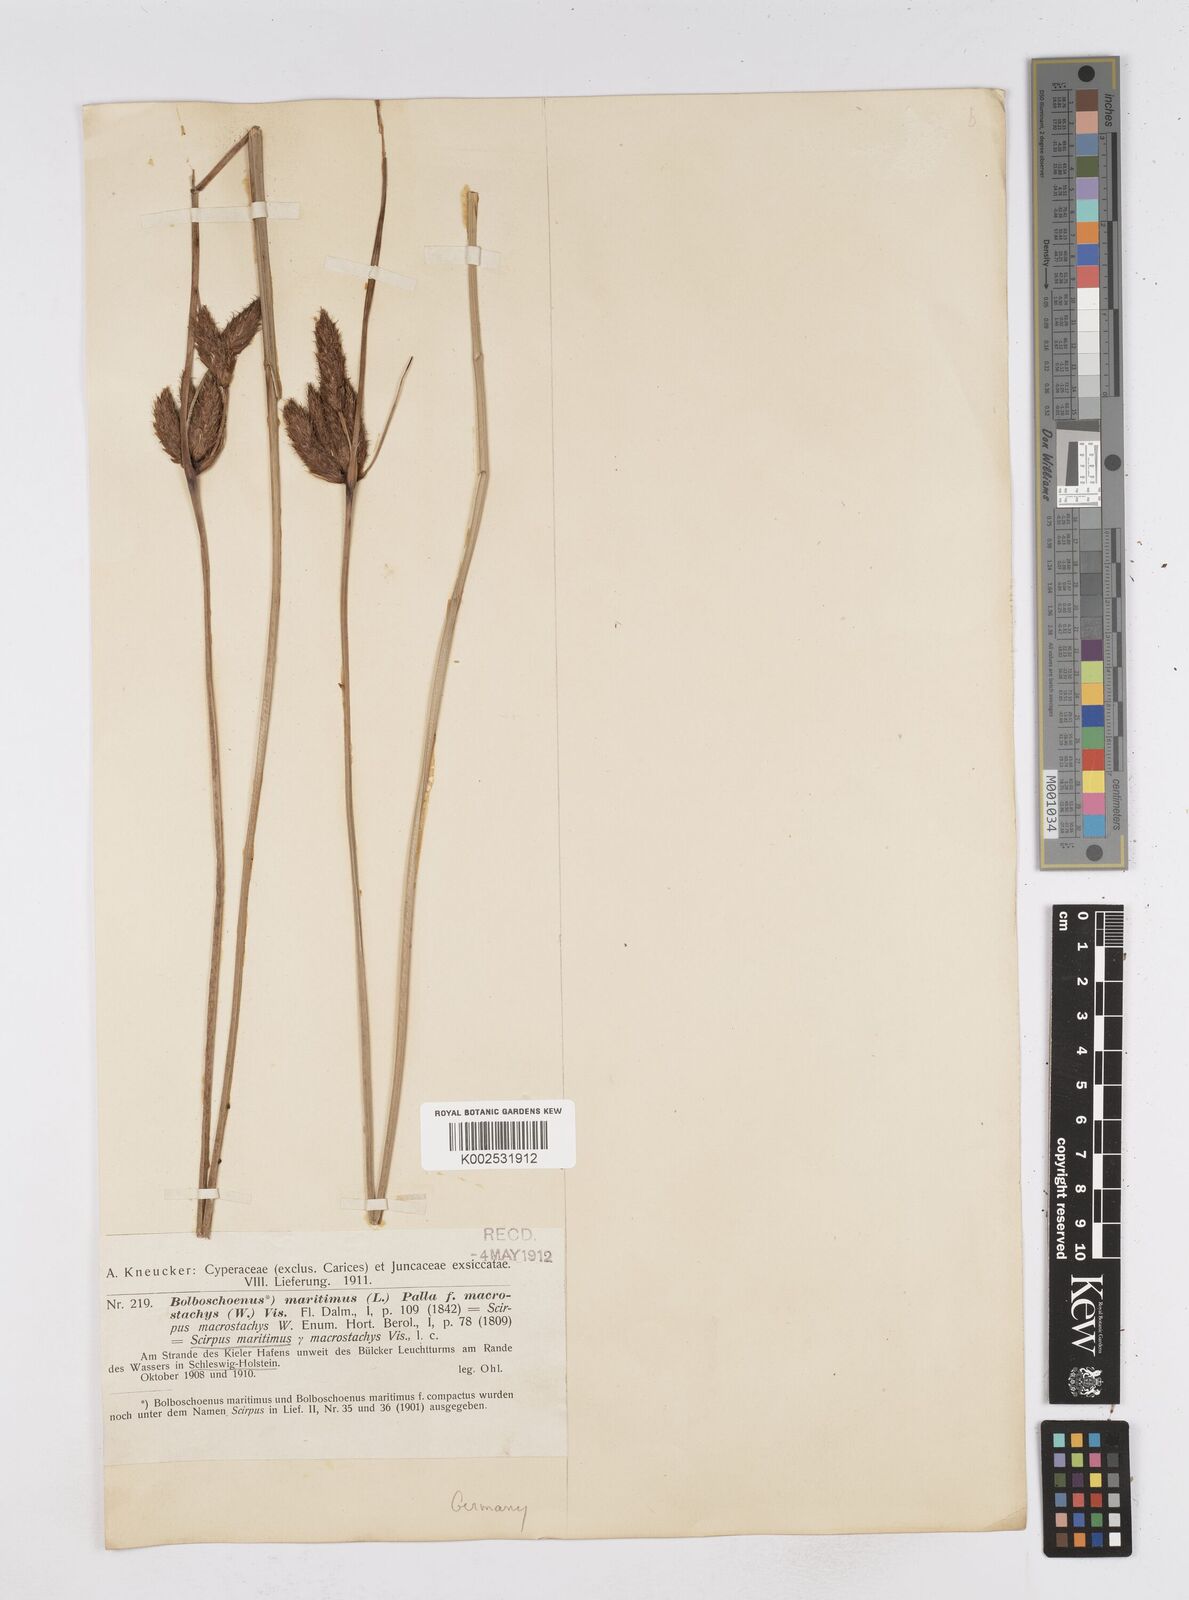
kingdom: Plantae
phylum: Tracheophyta
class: Liliopsida
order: Poales
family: Cyperaceae
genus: Bolboschoenus
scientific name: Bolboschoenus maritimus
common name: Sea club-rush
